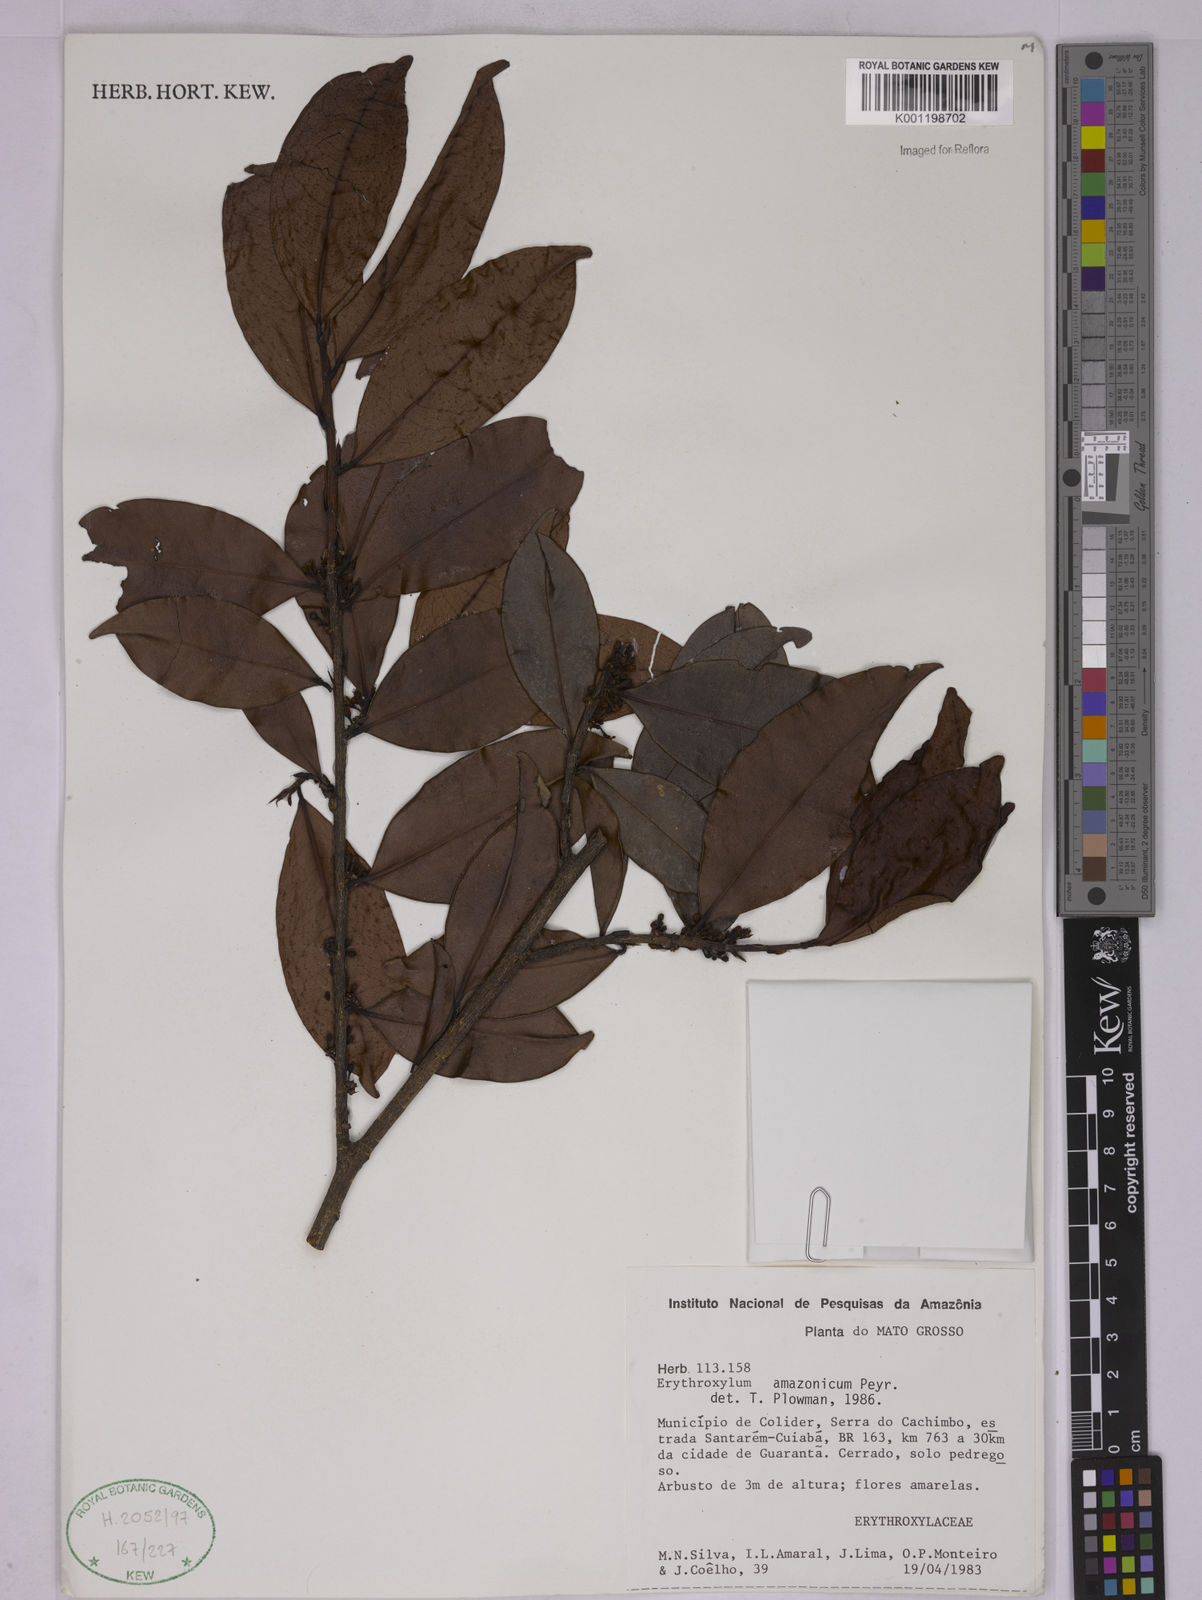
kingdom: Plantae
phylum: Tracheophyta
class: Magnoliopsida
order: Malpighiales
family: Erythroxylaceae
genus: Erythroxylum
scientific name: Erythroxylum amazonicum
